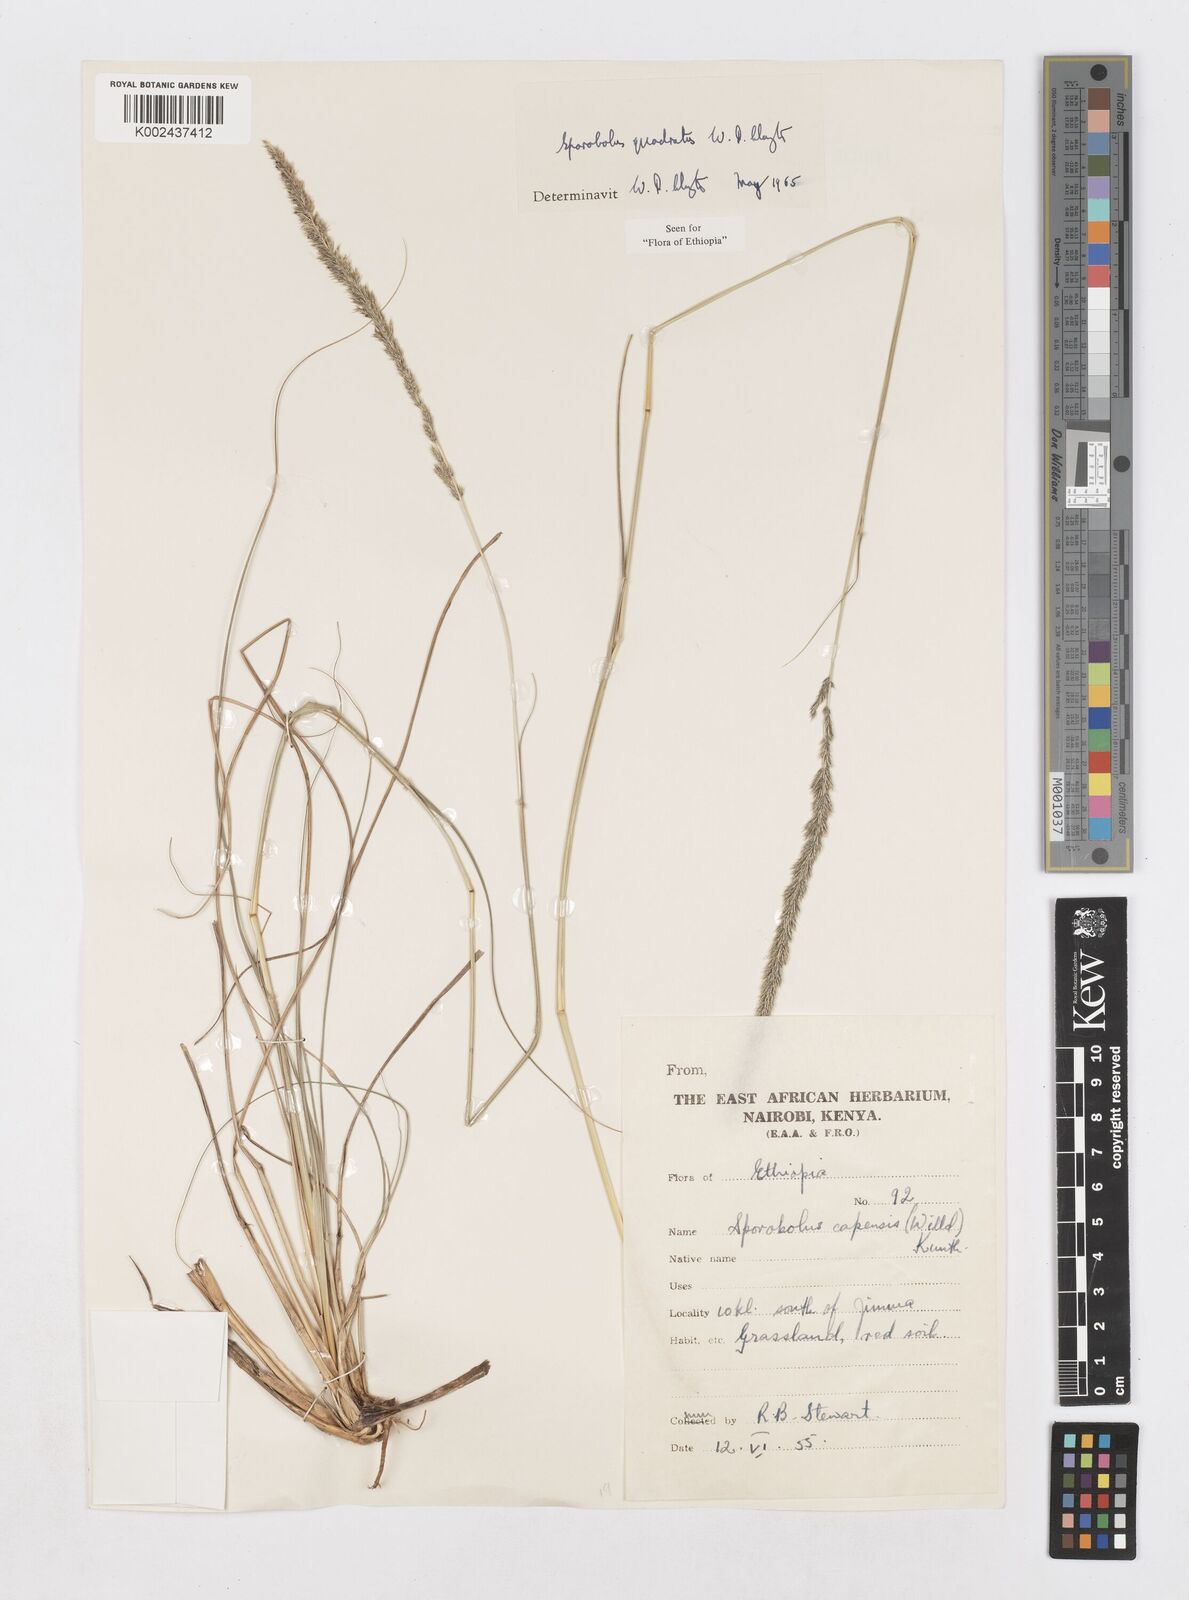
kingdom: Plantae
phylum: Tracheophyta
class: Liliopsida
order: Poales
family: Poaceae
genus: Sporobolus
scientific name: Sporobolus quadratus
